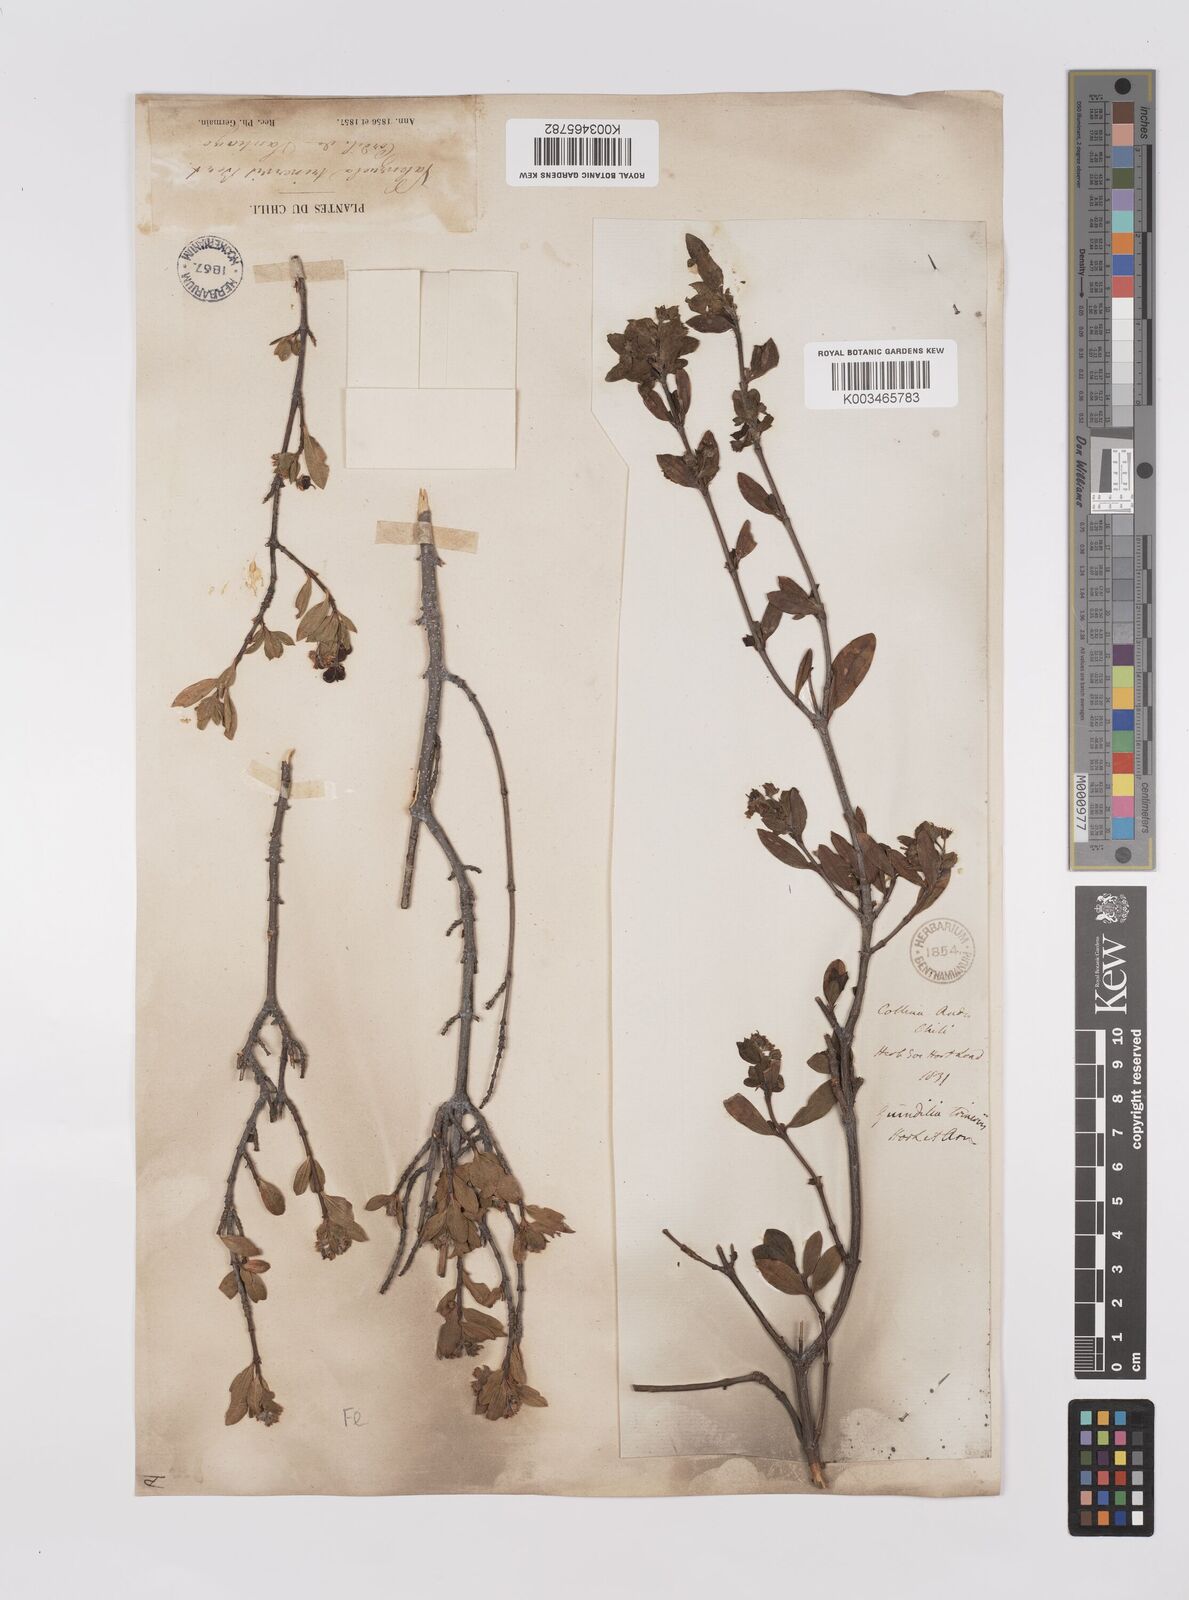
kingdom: Plantae
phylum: Tracheophyta
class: Magnoliopsida
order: Sapindales
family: Sapindaceae
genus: Guindilia
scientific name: Guindilia trinervis
